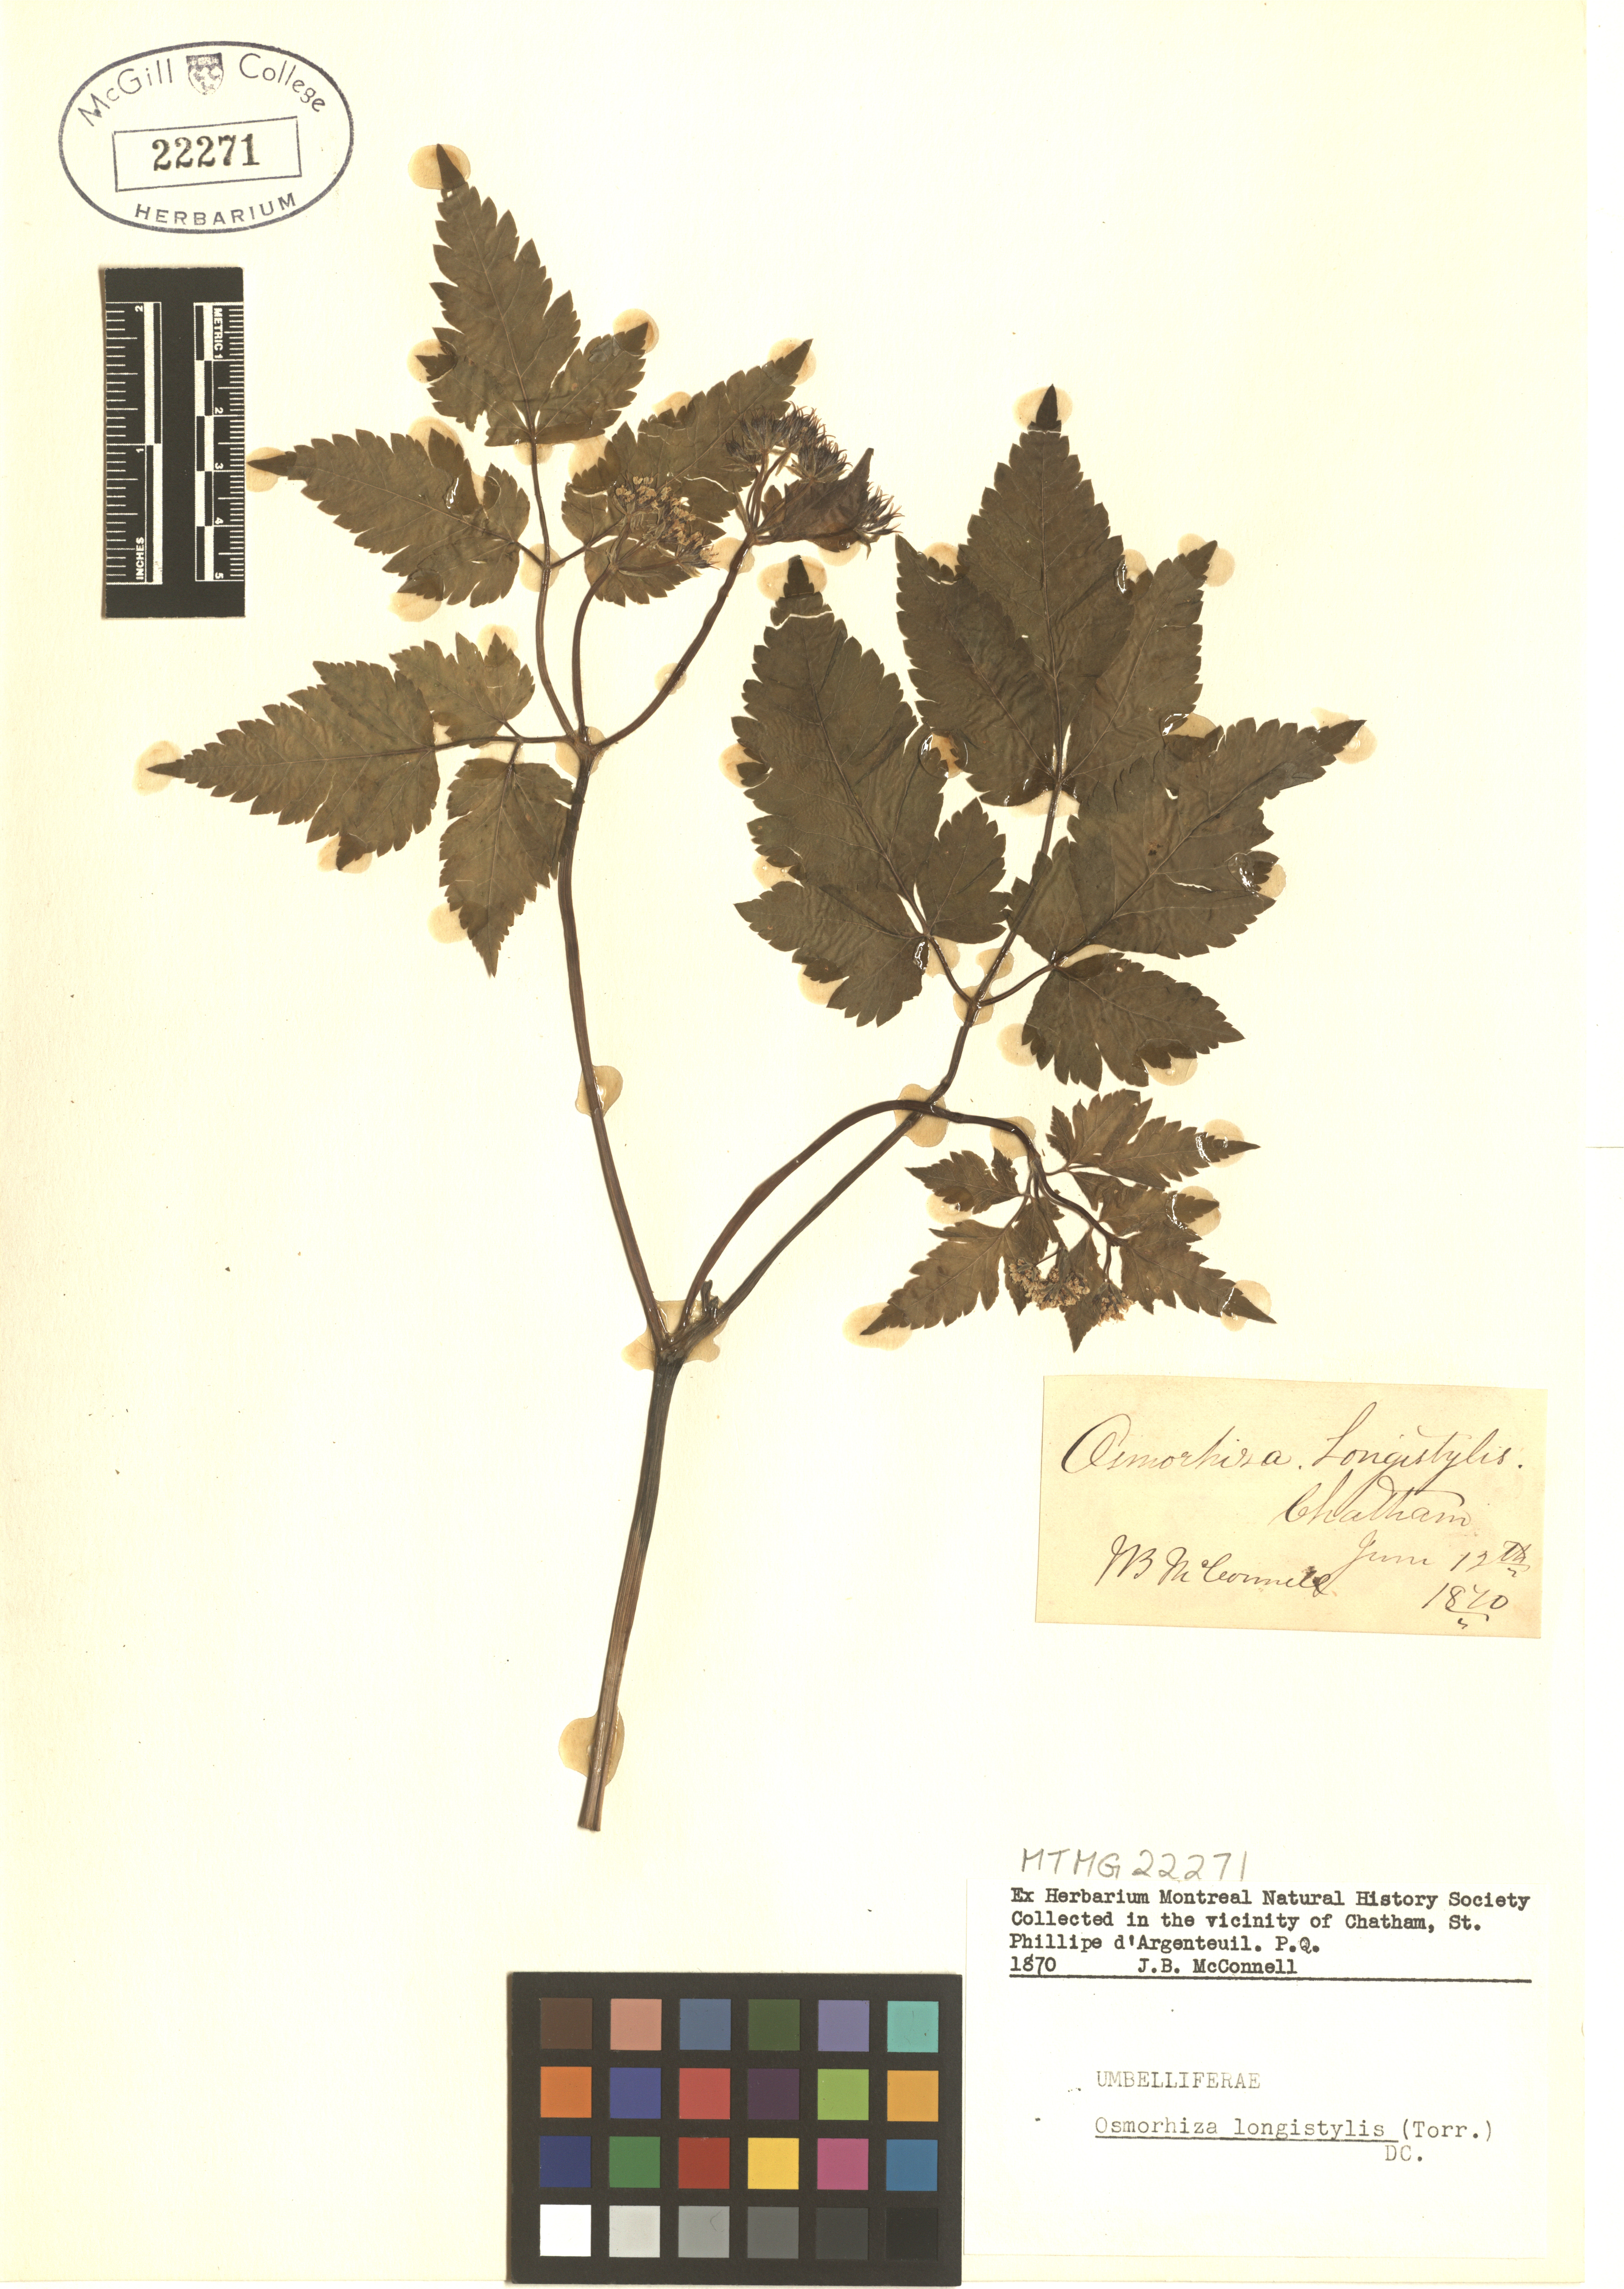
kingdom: Plantae
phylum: Tracheophyta
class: Magnoliopsida
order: Apiales
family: Apiaceae
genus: Osmorhiza
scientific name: Osmorhiza longistylis
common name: Smooth sweet cicely
